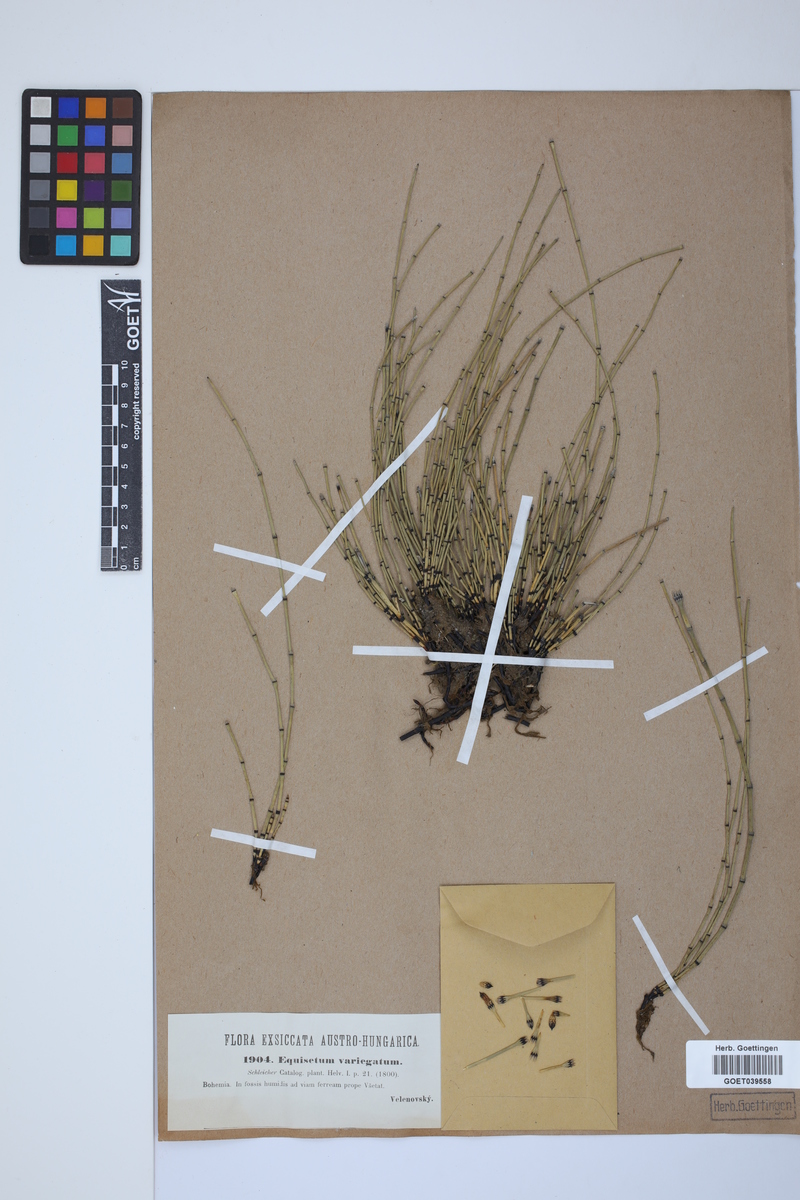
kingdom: Plantae
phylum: Tracheophyta
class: Polypodiopsida
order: Equisetales
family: Equisetaceae
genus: Equisetum
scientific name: Equisetum variegatum
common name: Variegated horsetail
